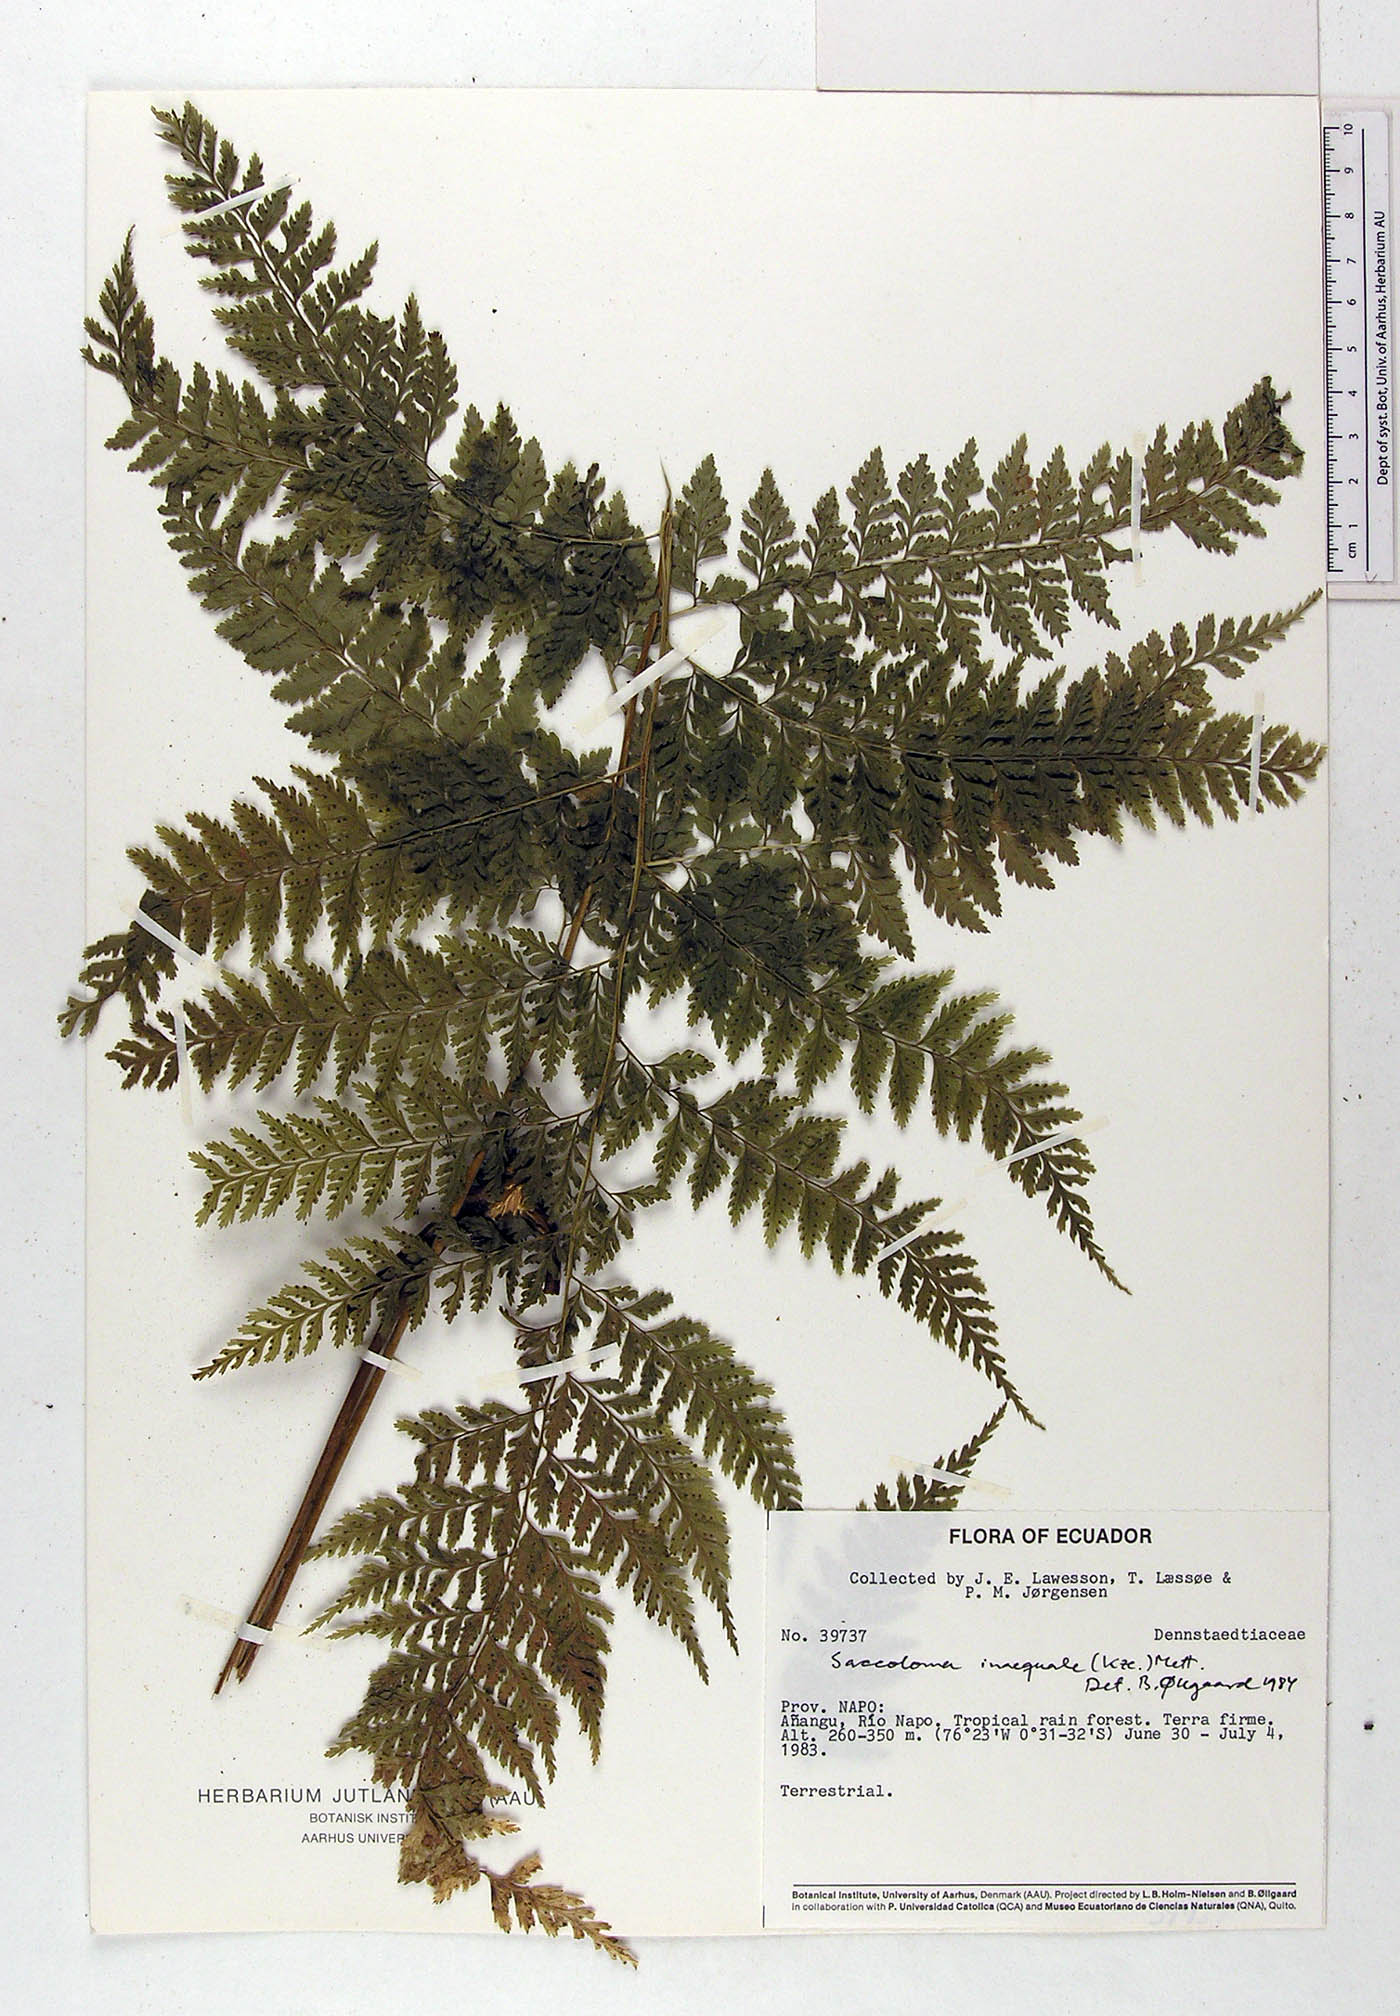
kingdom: Plantae
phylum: Tracheophyta
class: Polypodiopsida
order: Polypodiales
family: Saccolomataceae
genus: Saccoloma
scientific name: Saccoloma inaequale
